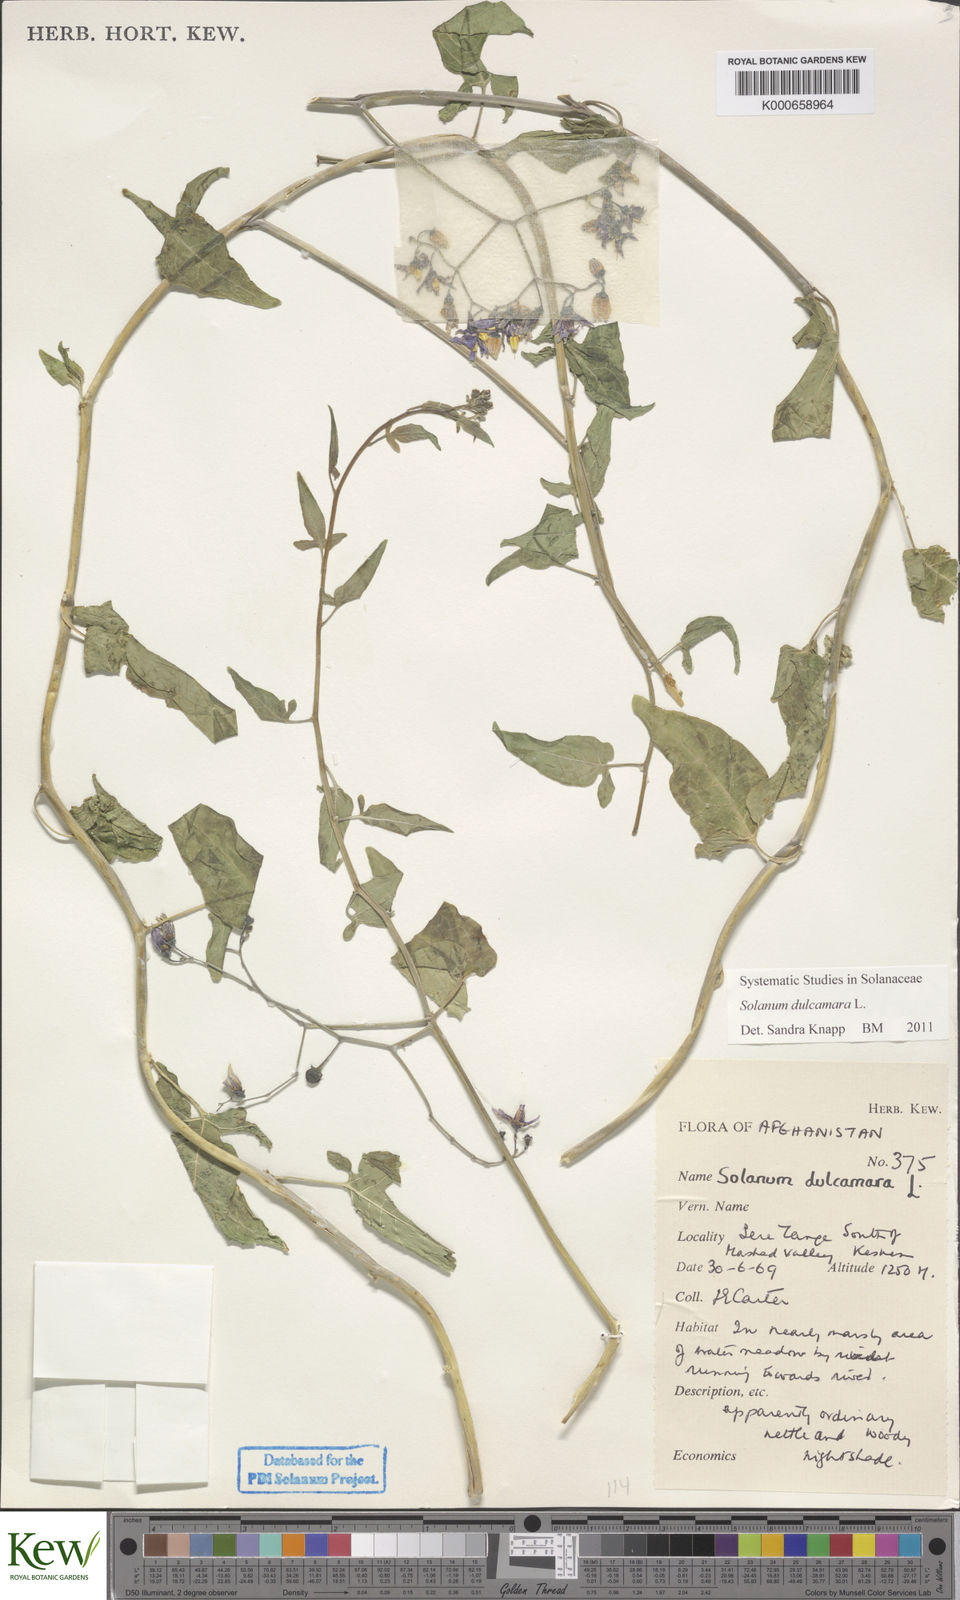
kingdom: Plantae
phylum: Tracheophyta
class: Magnoliopsida
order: Solanales
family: Solanaceae
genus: Solanum
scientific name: Solanum dulcamara
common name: Climbing nightshade
